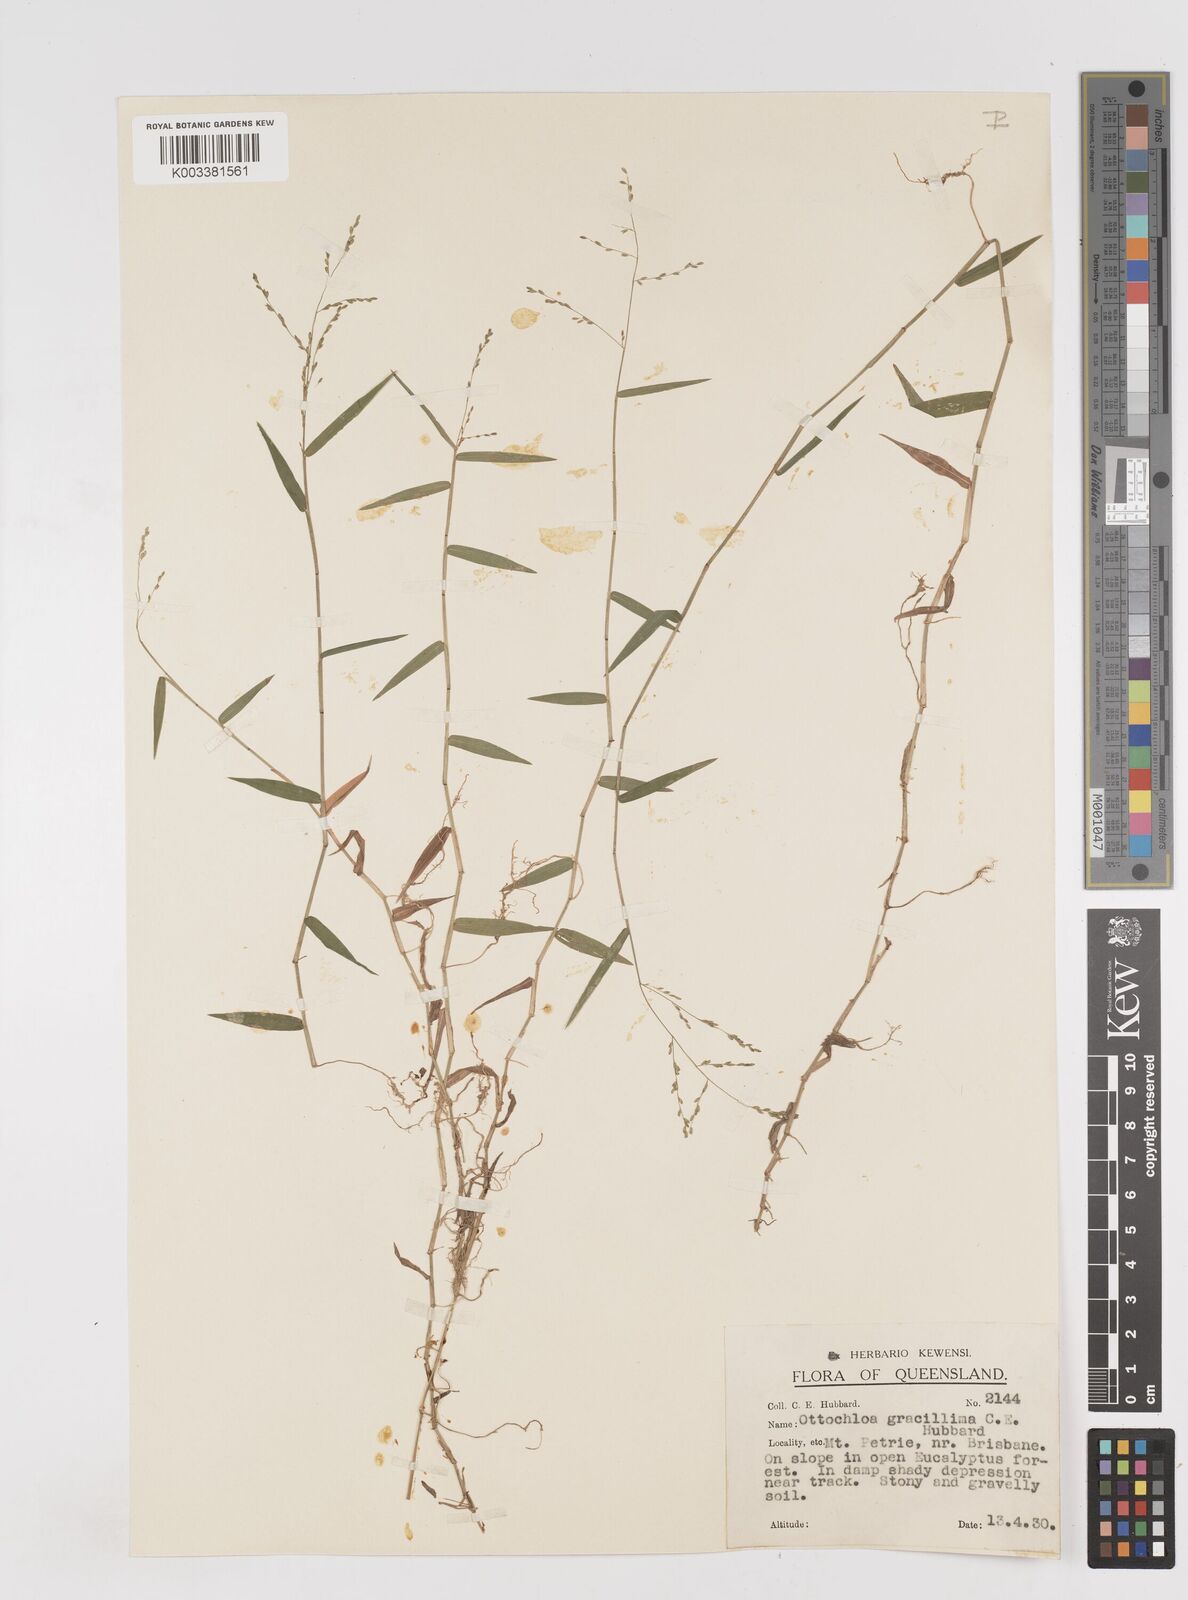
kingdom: Plantae
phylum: Tracheophyta
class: Liliopsida
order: Poales
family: Poaceae
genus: Ottochloa
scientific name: Ottochloa gracillima
